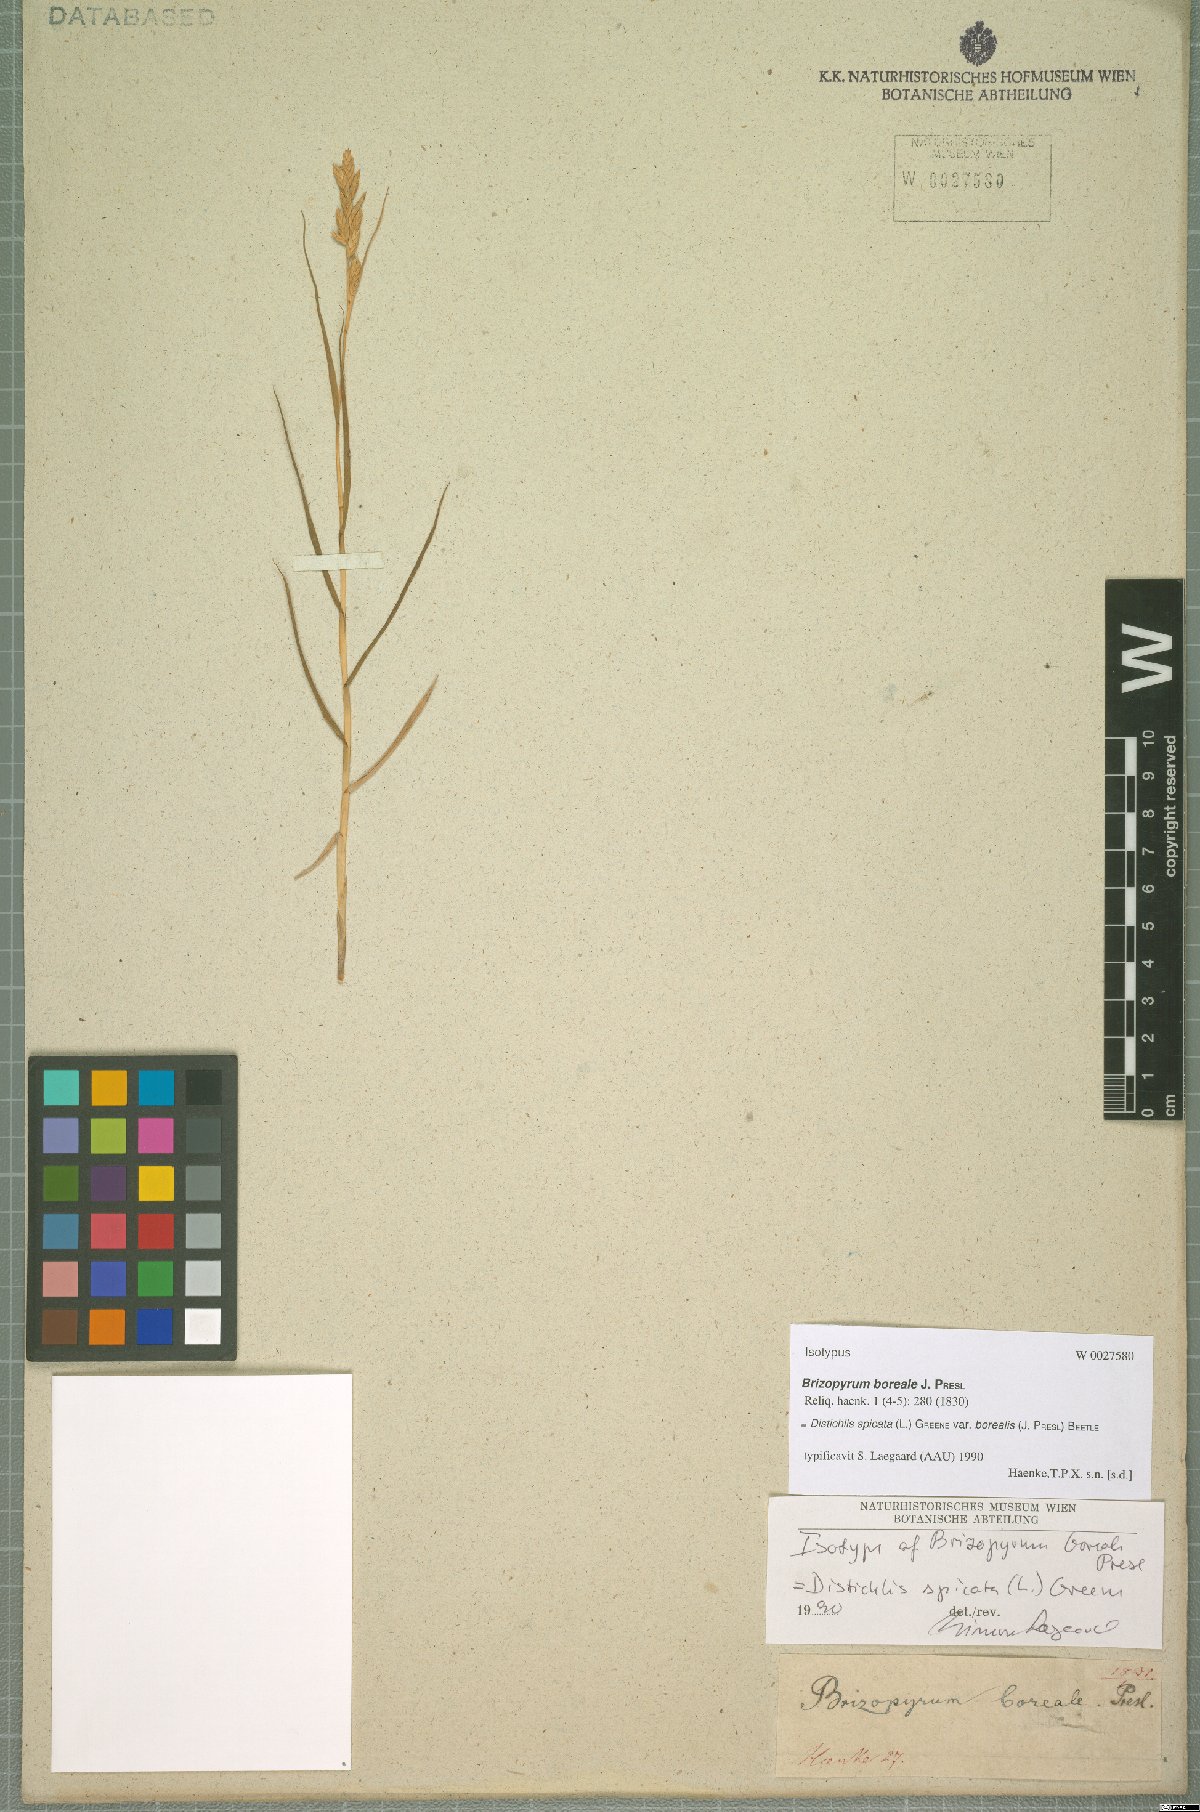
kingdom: Plantae
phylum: Tracheophyta
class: Liliopsida
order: Poales
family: Poaceae
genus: Distichlis
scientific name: Distichlis spicata
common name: Saltgrass
